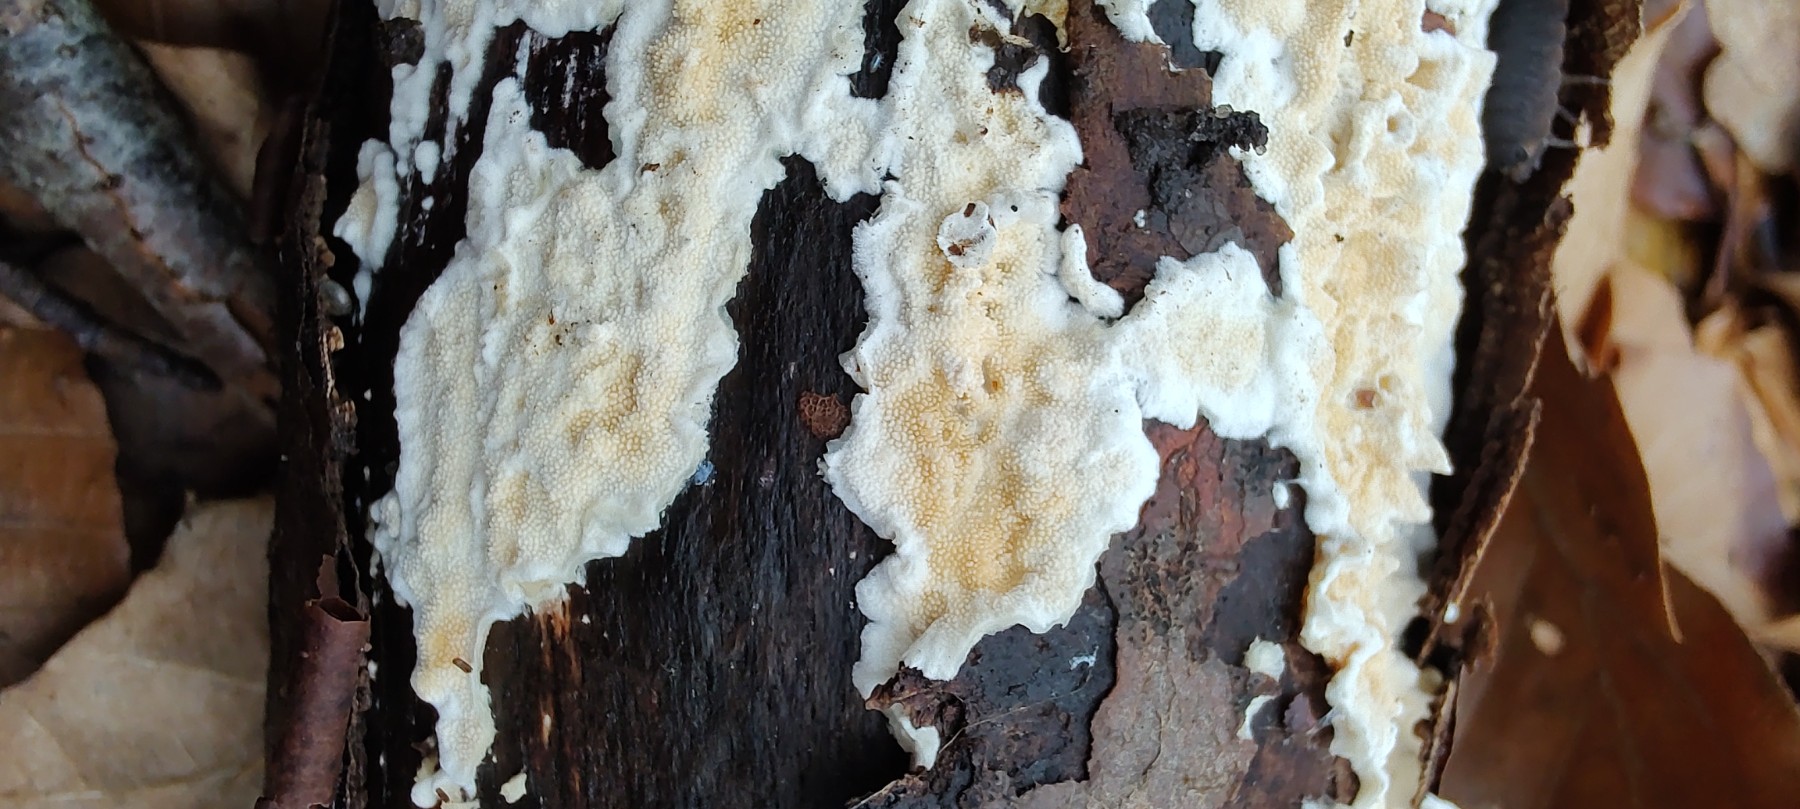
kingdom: Fungi
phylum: Basidiomycota
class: Agaricomycetes
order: Polyporales
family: Steccherinaceae
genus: Steccherinum
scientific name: Steccherinum ochraceum
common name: almindelig skønpig
